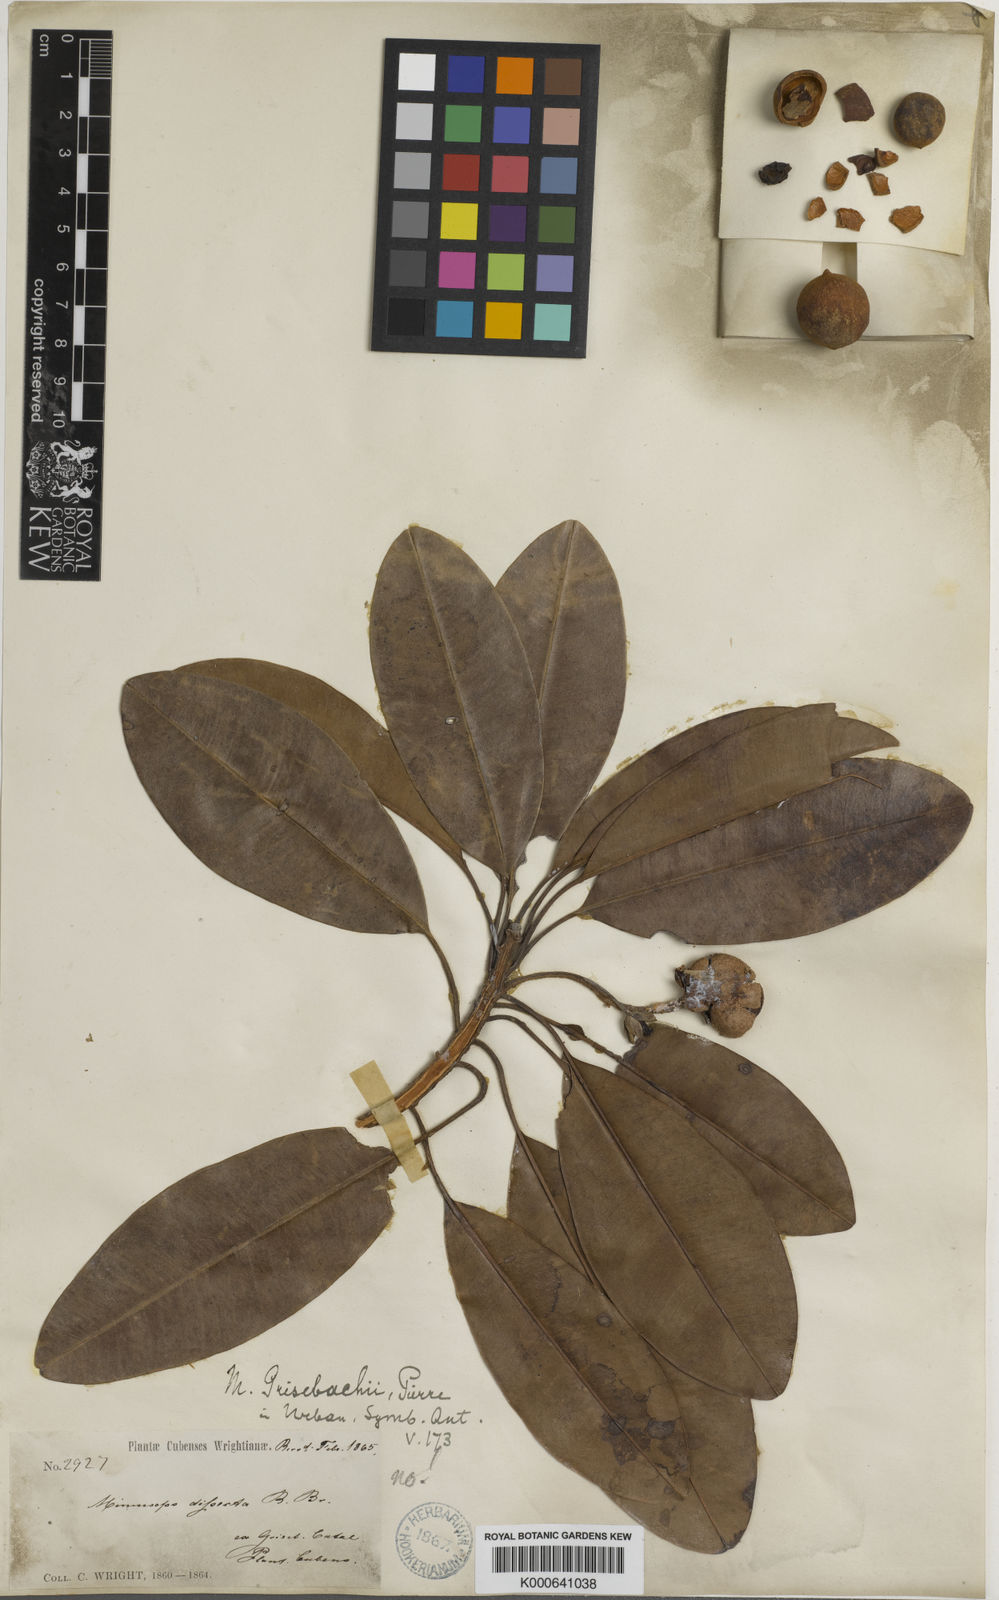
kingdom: Plantae
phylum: Tracheophyta
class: Magnoliopsida
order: Ericales
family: Sapotaceae
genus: Manilkara
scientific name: Manilkara zapota
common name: Sapodilla
